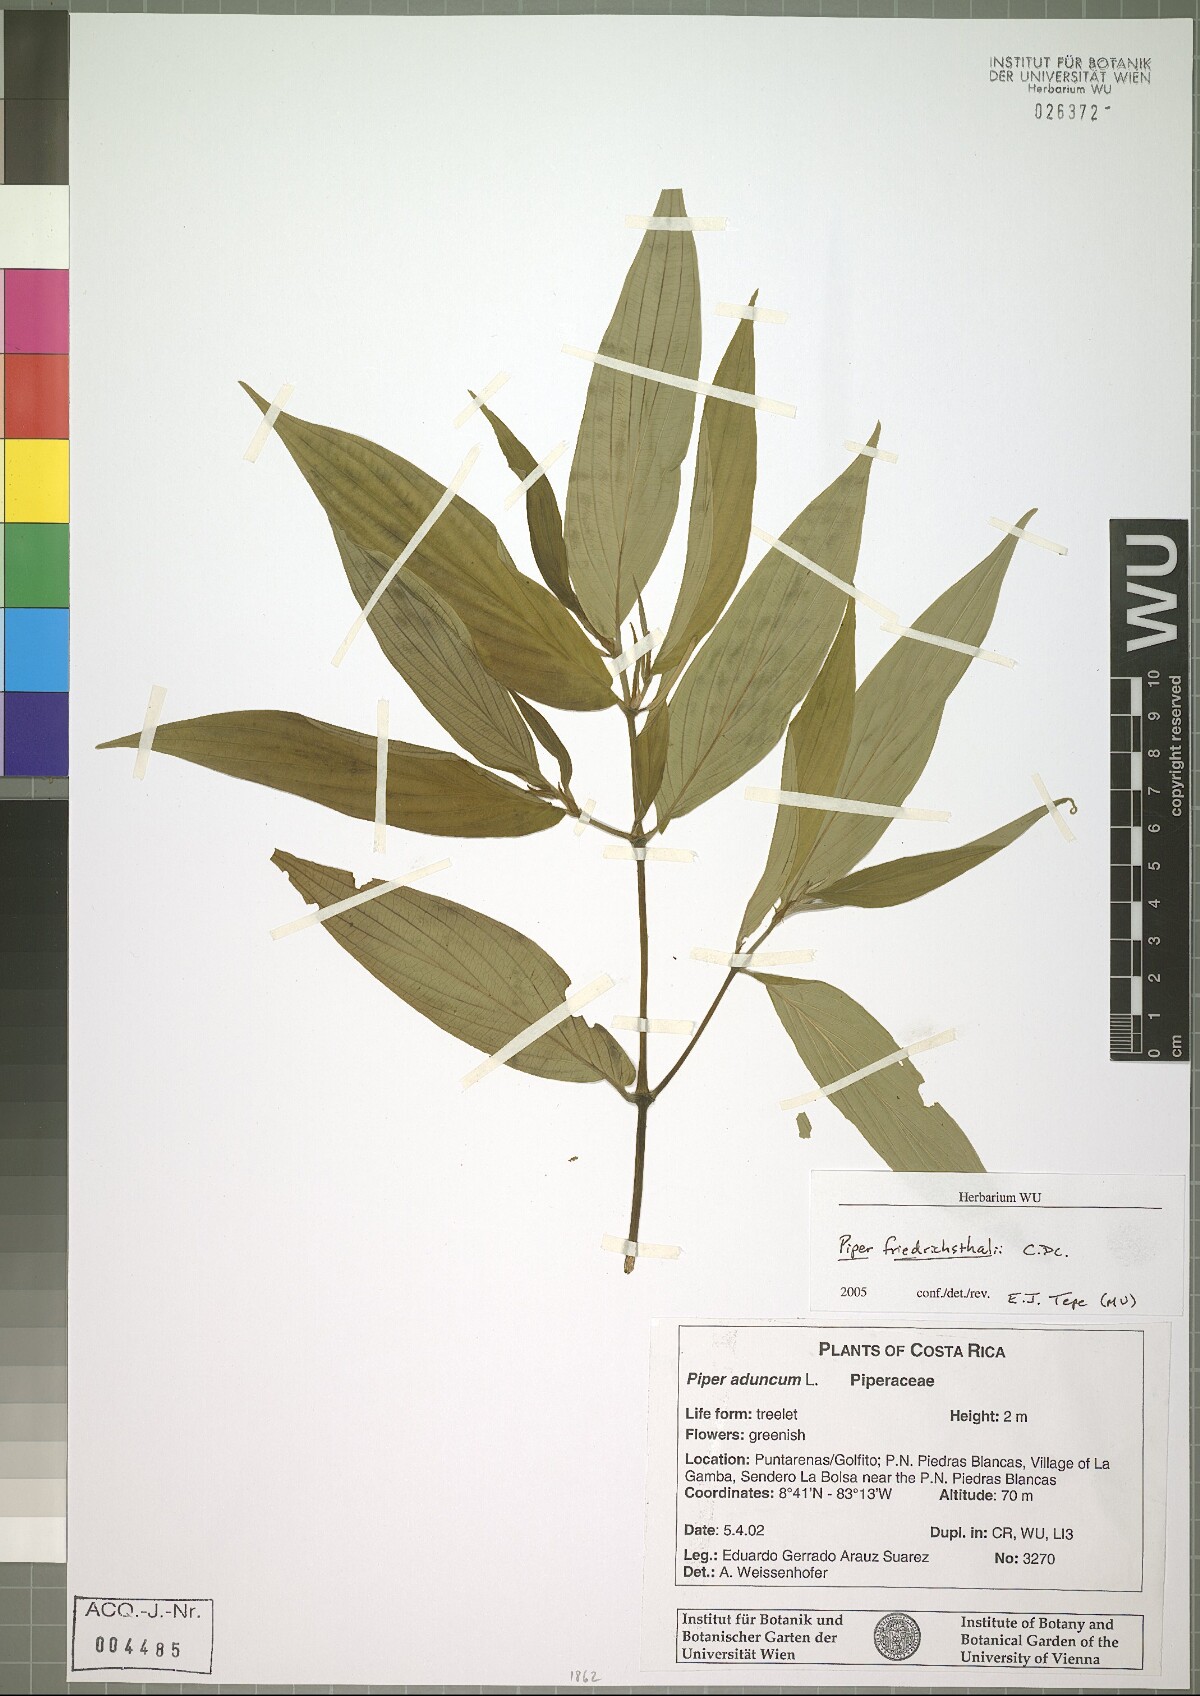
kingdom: Plantae
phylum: Tracheophyta
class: Magnoliopsida
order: Piperales
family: Piperaceae
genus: Piper
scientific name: Piper friedrichsthalii
